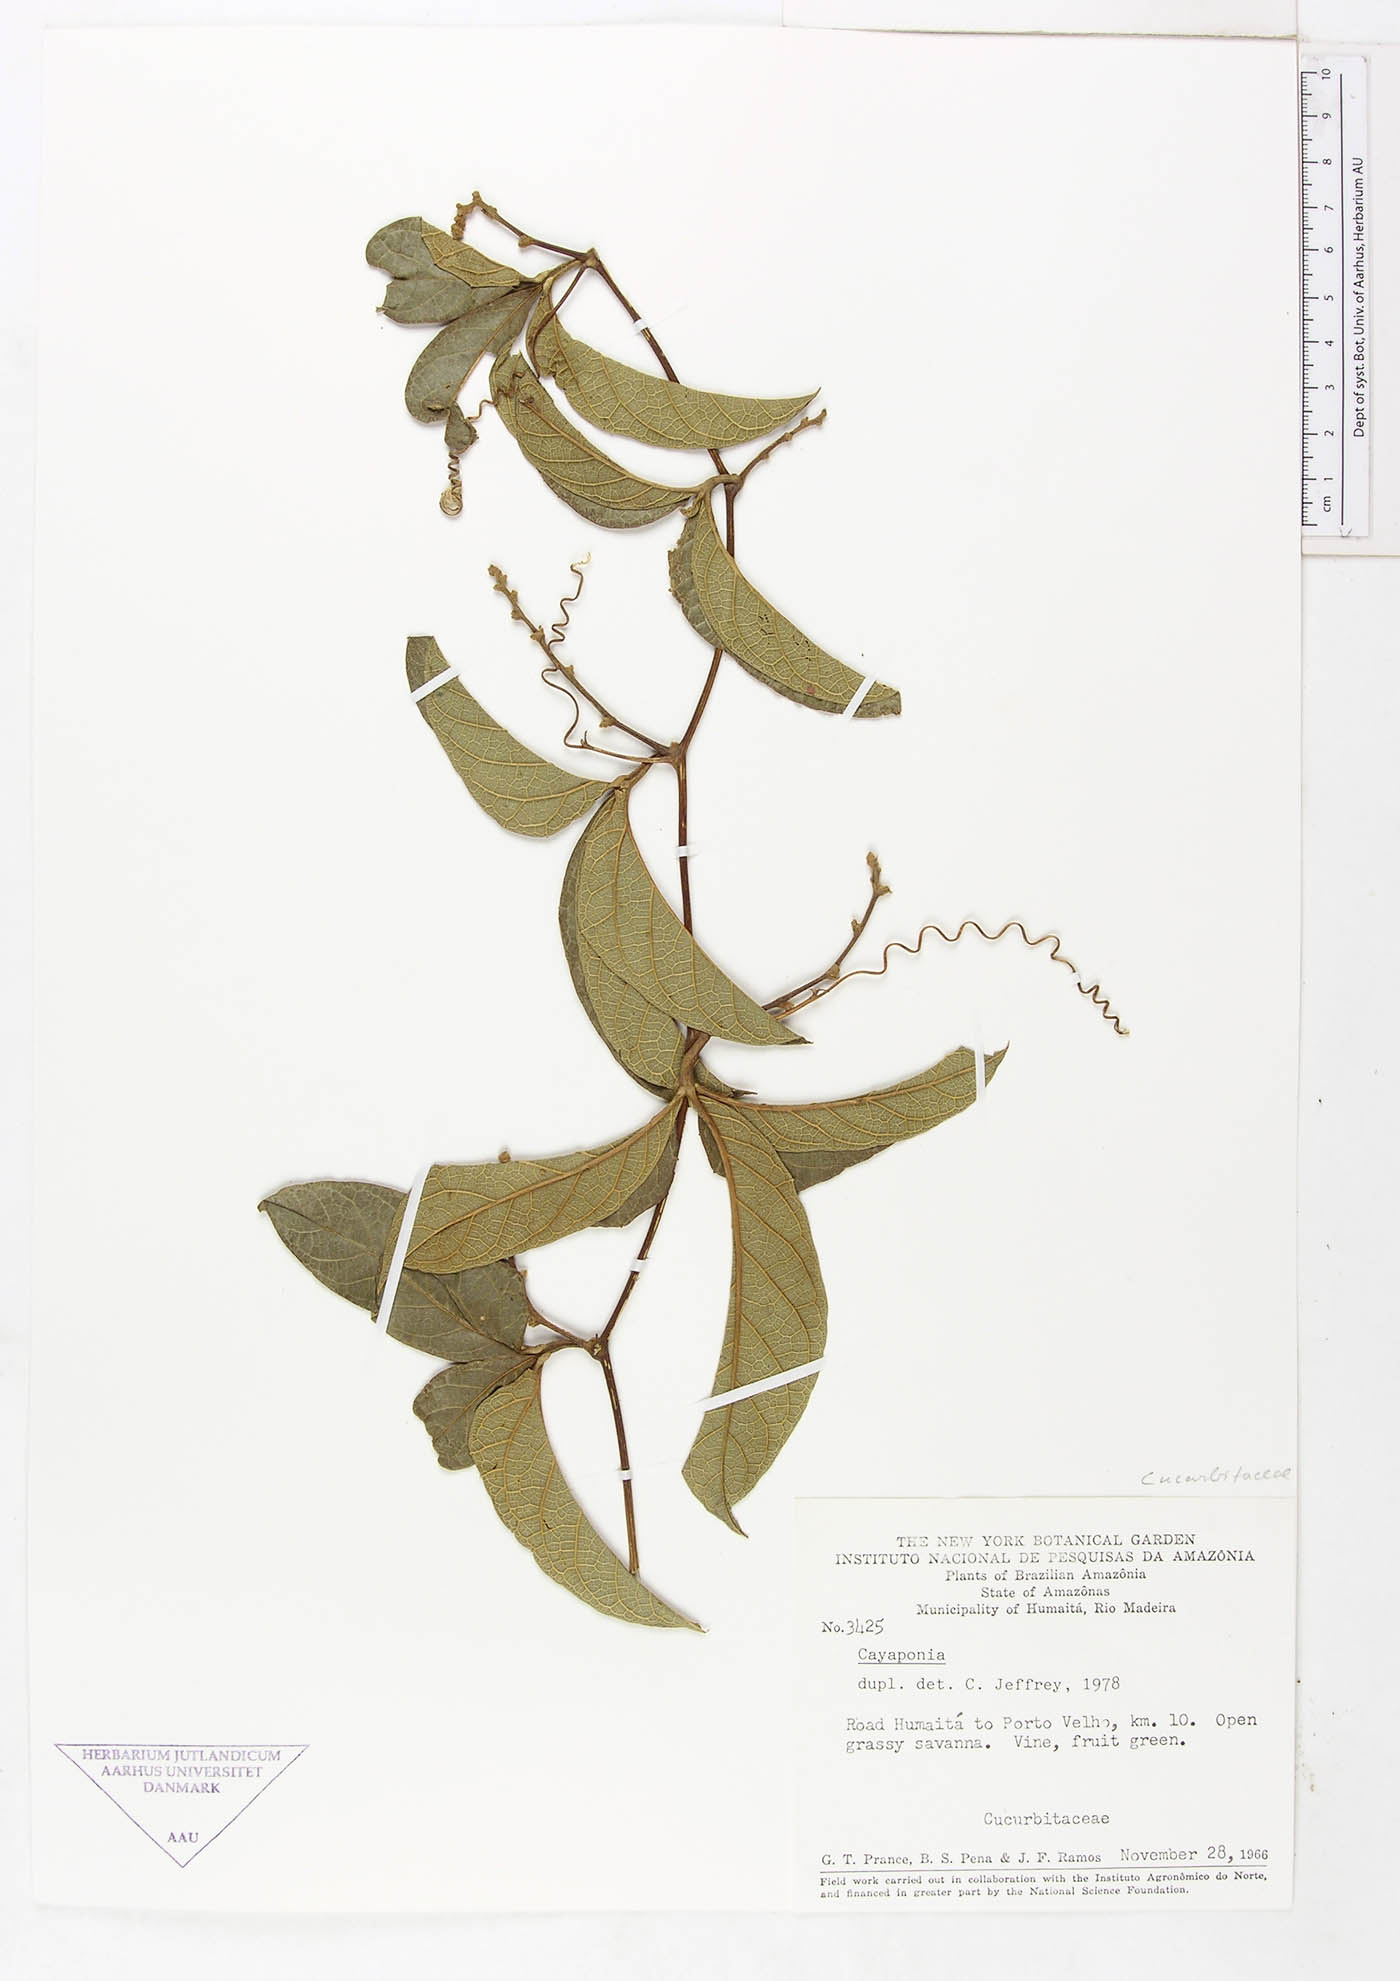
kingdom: Plantae
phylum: Tracheophyta
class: Magnoliopsida
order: Cucurbitales
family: Cucurbitaceae
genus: Cayaponia
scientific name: Cayaponia ferruginea
